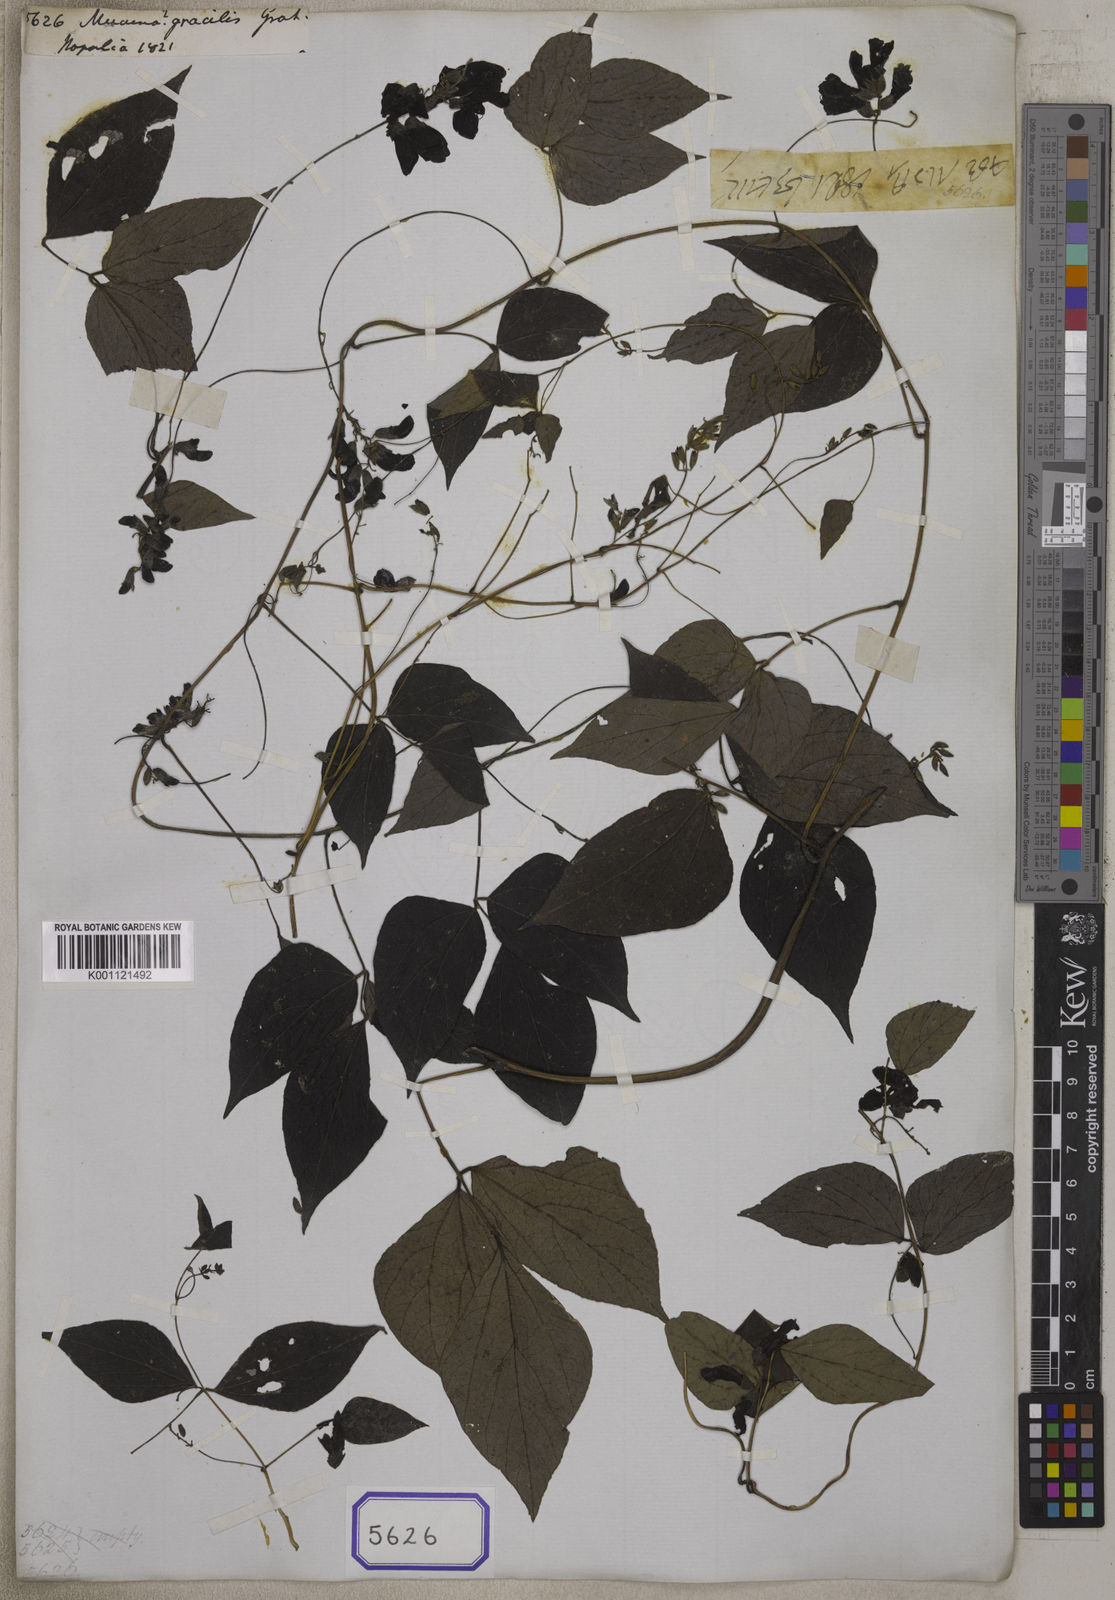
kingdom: Plantae
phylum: Tracheophyta
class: Magnoliopsida
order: Fabales
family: Fabaceae
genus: Cochlianthus
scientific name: Cochlianthus gracilis
